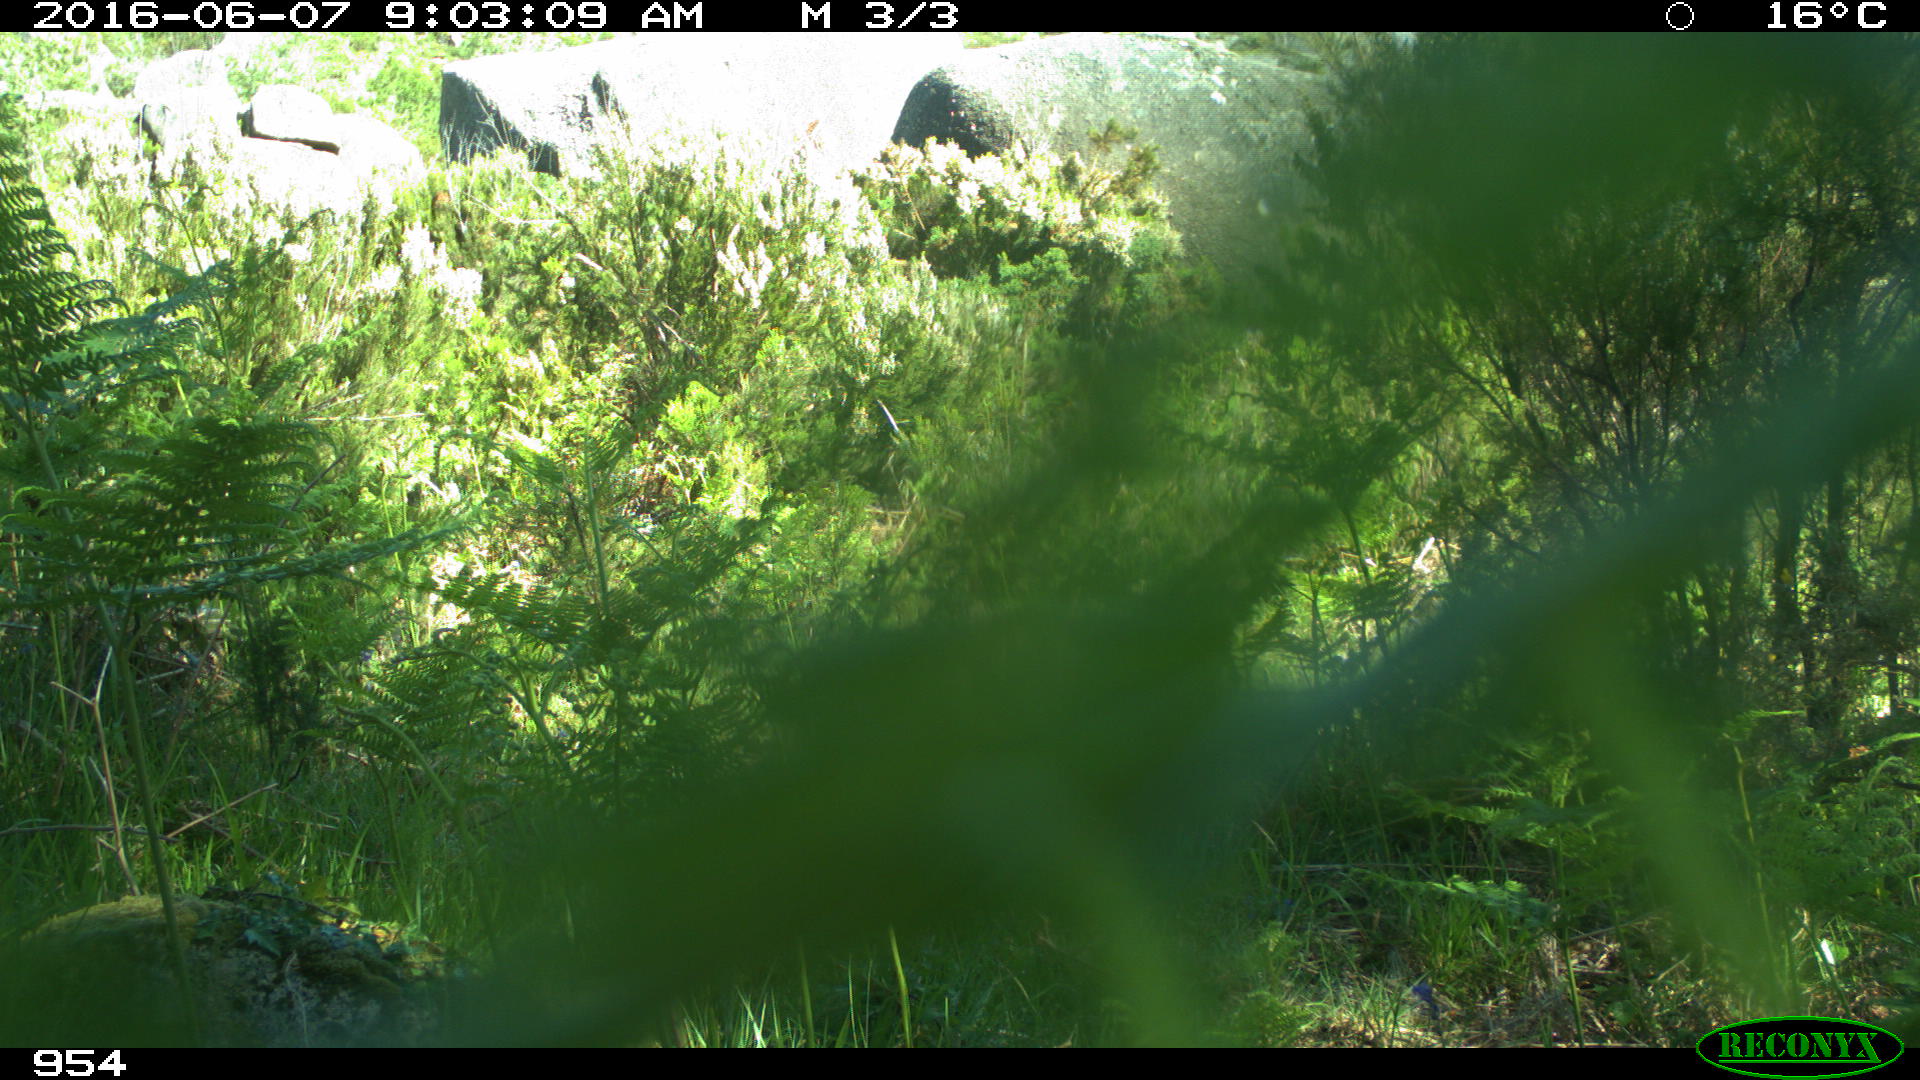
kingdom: Animalia
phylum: Chordata
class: Mammalia
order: Artiodactyla
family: Cervidae
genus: Capreolus
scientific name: Capreolus capreolus
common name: Western roe deer
